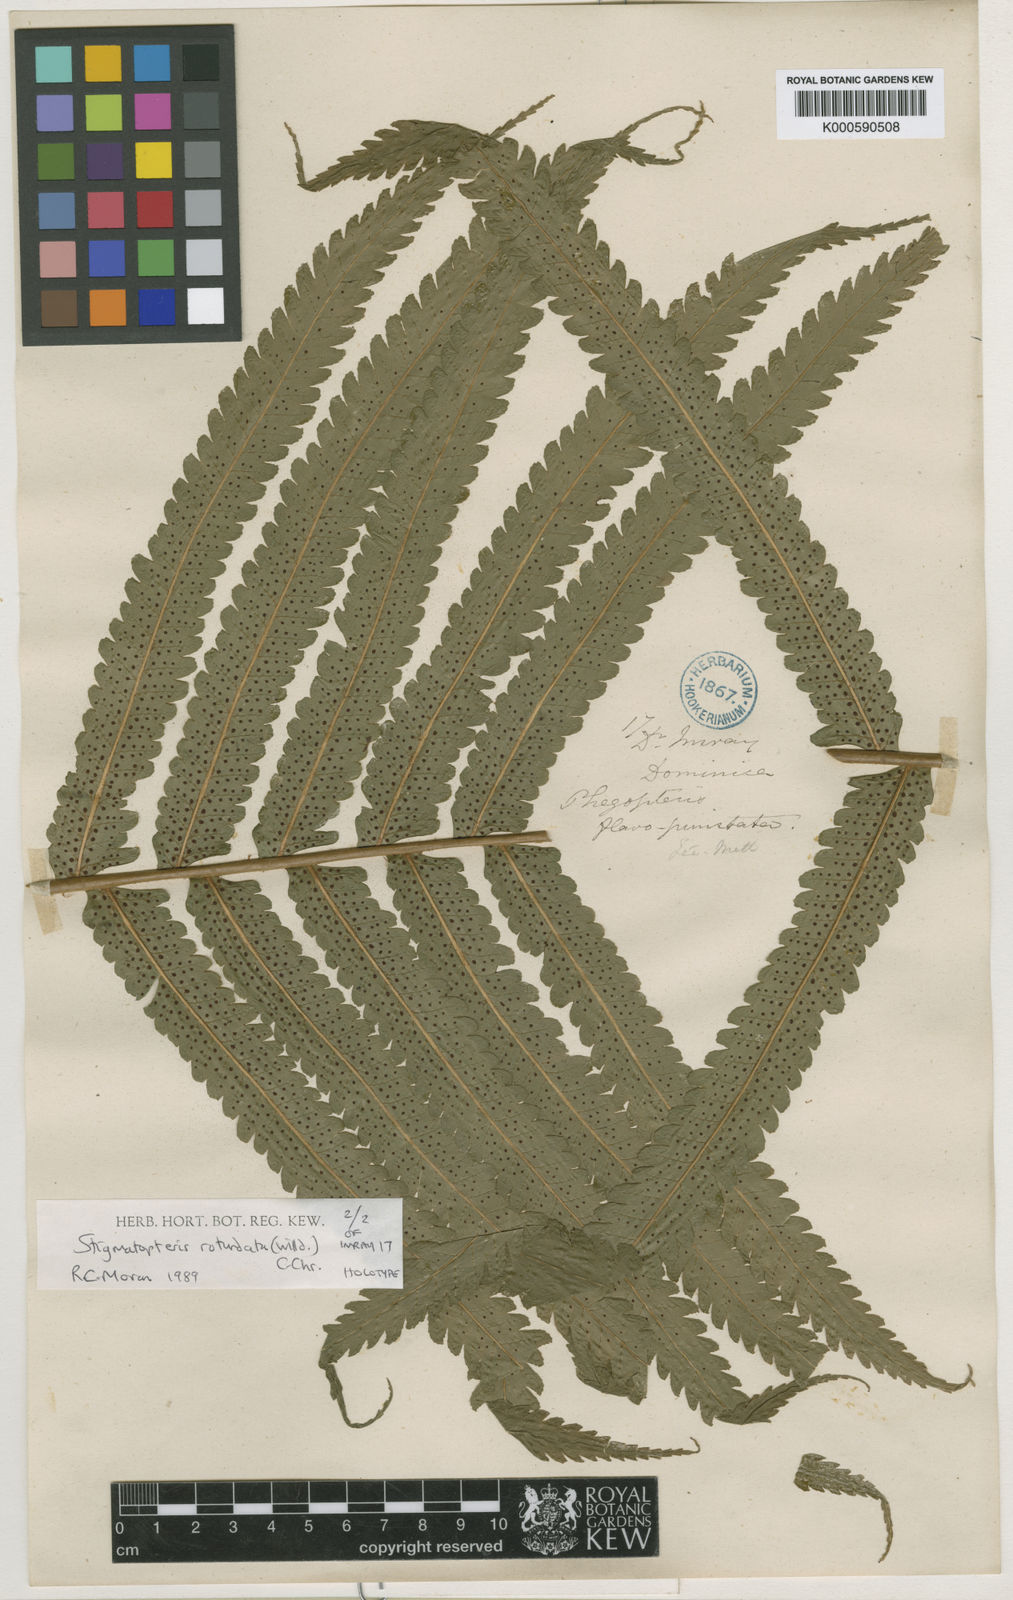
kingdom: Plantae
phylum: Tracheophyta
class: Polypodiopsida
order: Polypodiales
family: Dryopteridaceae
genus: Stigmatopteris
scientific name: Stigmatopteris rotundata
